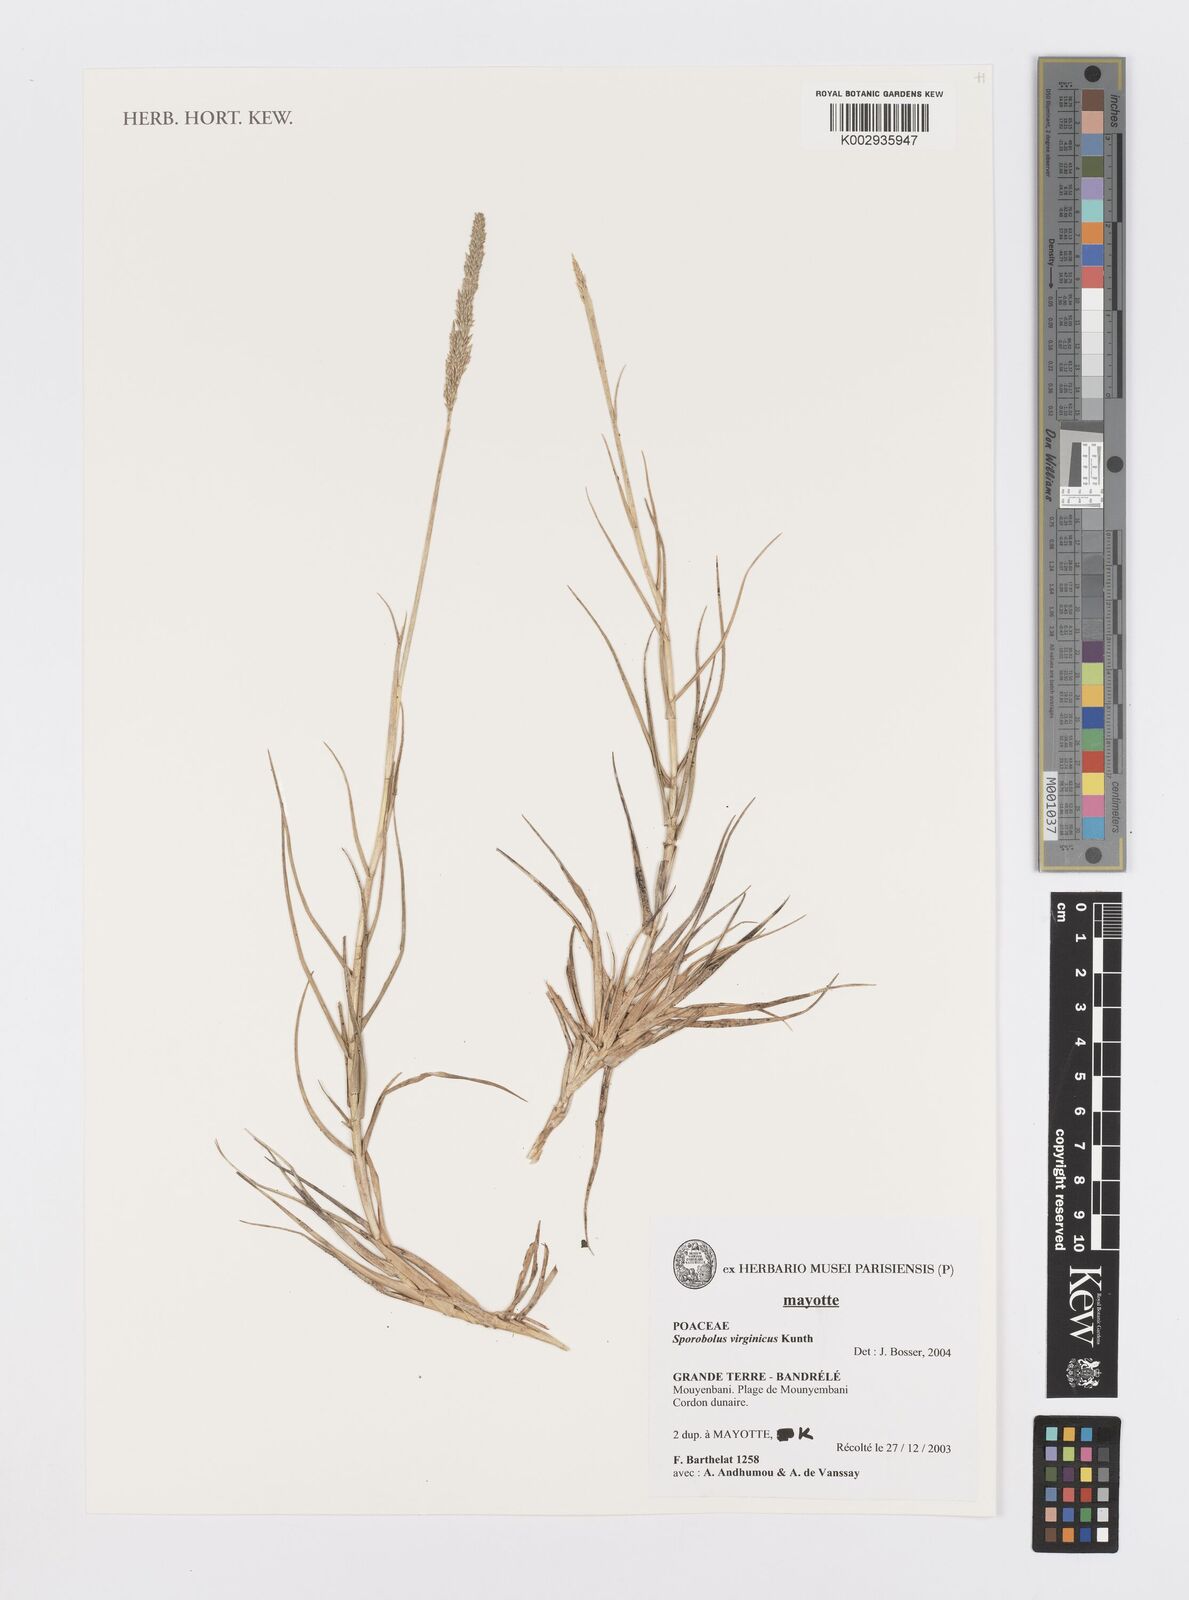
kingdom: Plantae
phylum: Tracheophyta
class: Liliopsida
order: Poales
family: Poaceae
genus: Sporobolus
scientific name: Sporobolus virginicus
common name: Beach dropseed
